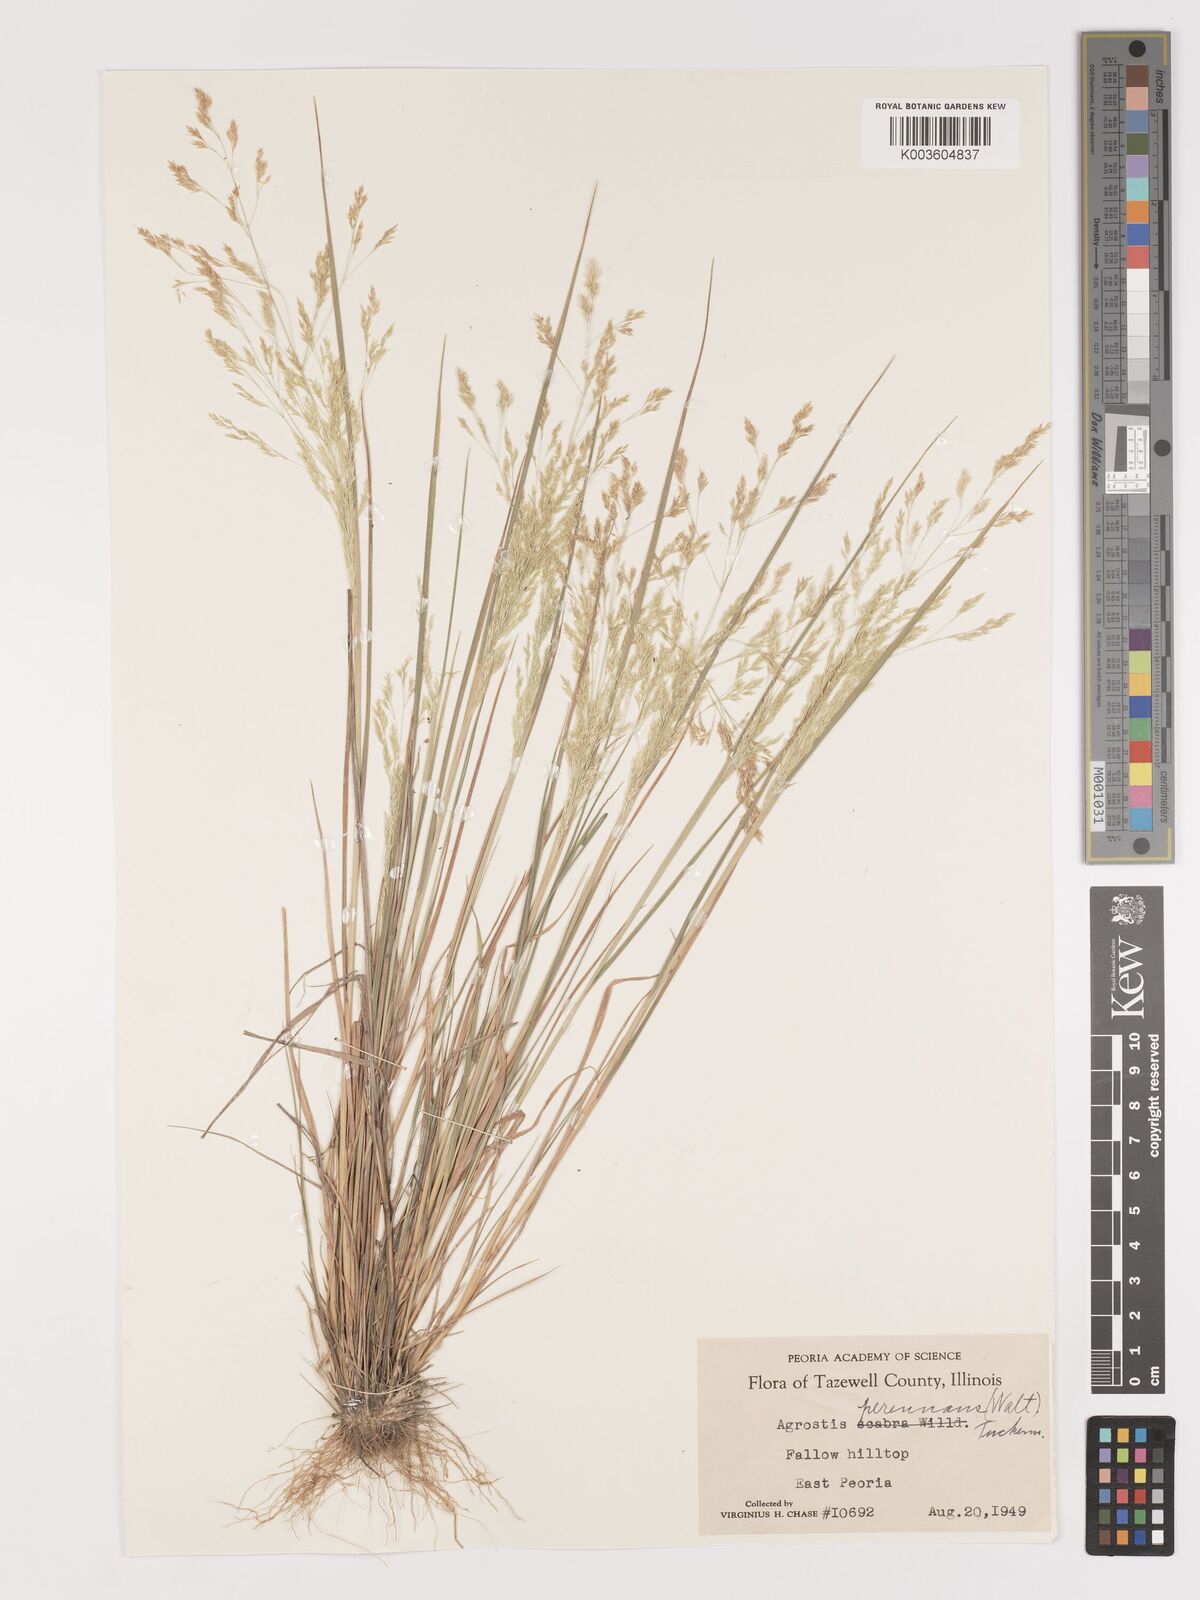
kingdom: Plantae
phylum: Tracheophyta
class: Liliopsida
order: Poales
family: Poaceae
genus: Agrostis
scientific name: Agrostis
